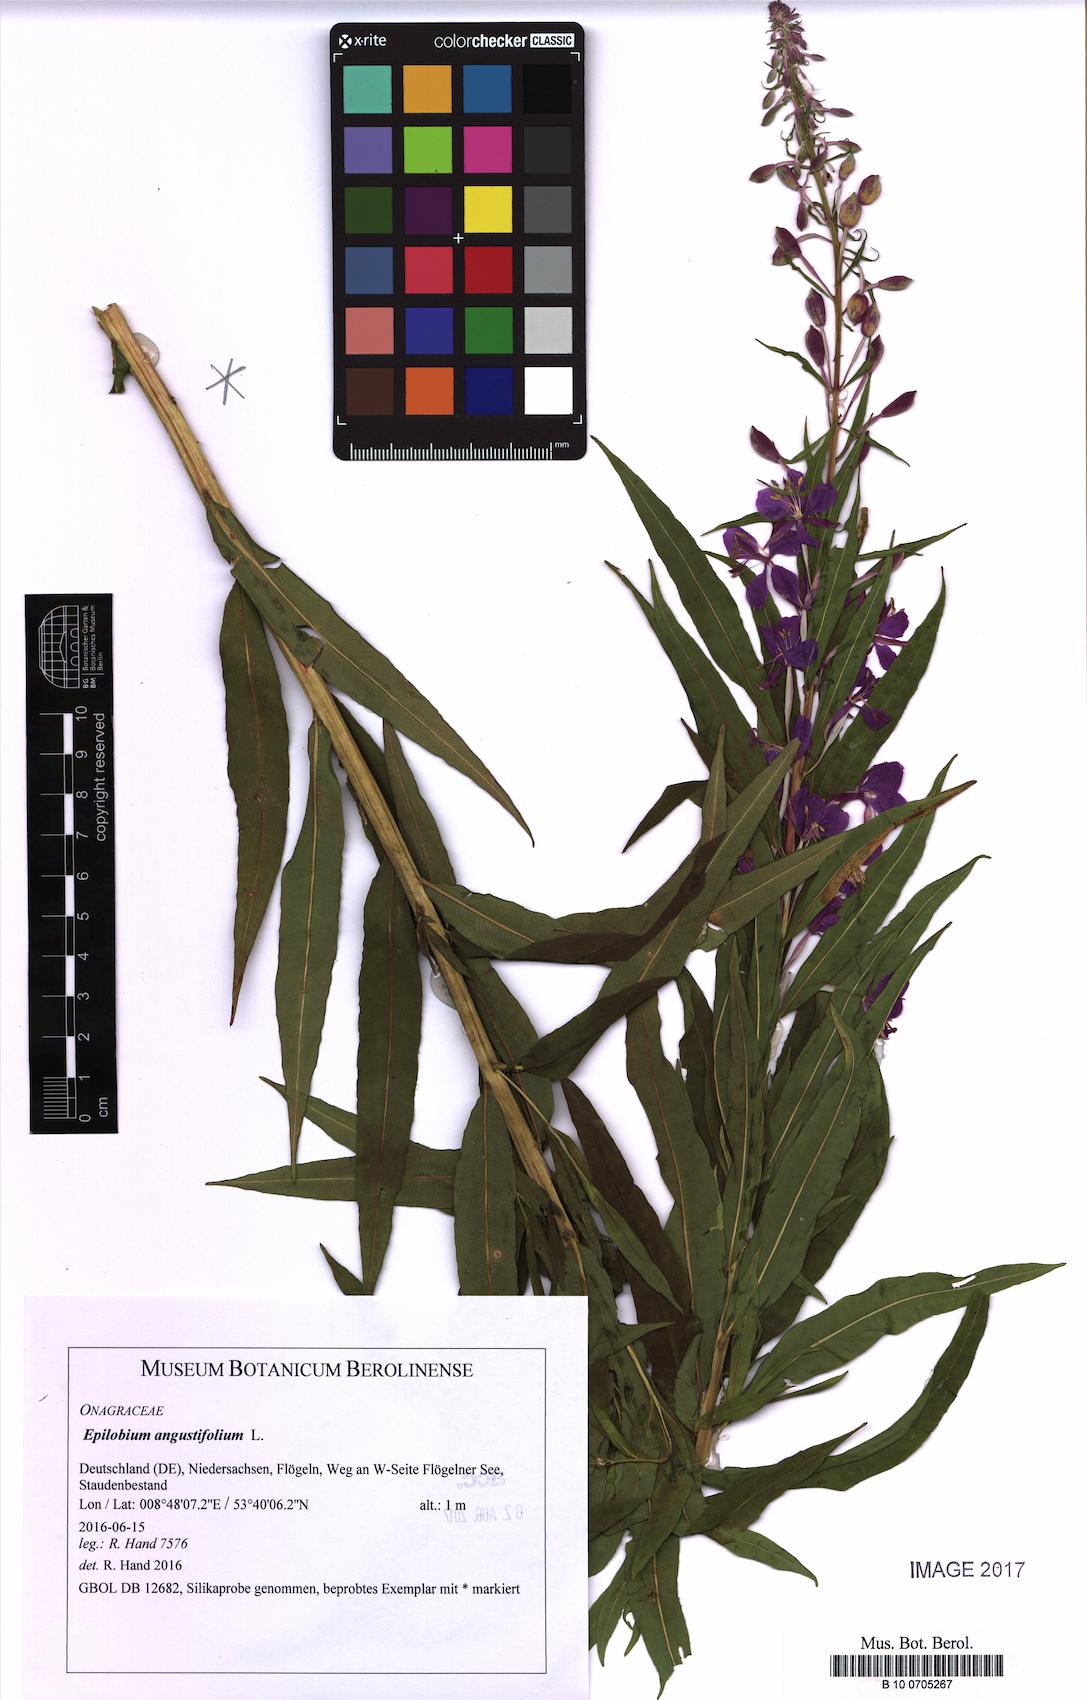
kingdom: Plantae
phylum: Tracheophyta
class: Magnoliopsida
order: Myrtales
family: Onagraceae
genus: Chamaenerion
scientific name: Chamaenerion angustifolium
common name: Fireweed
